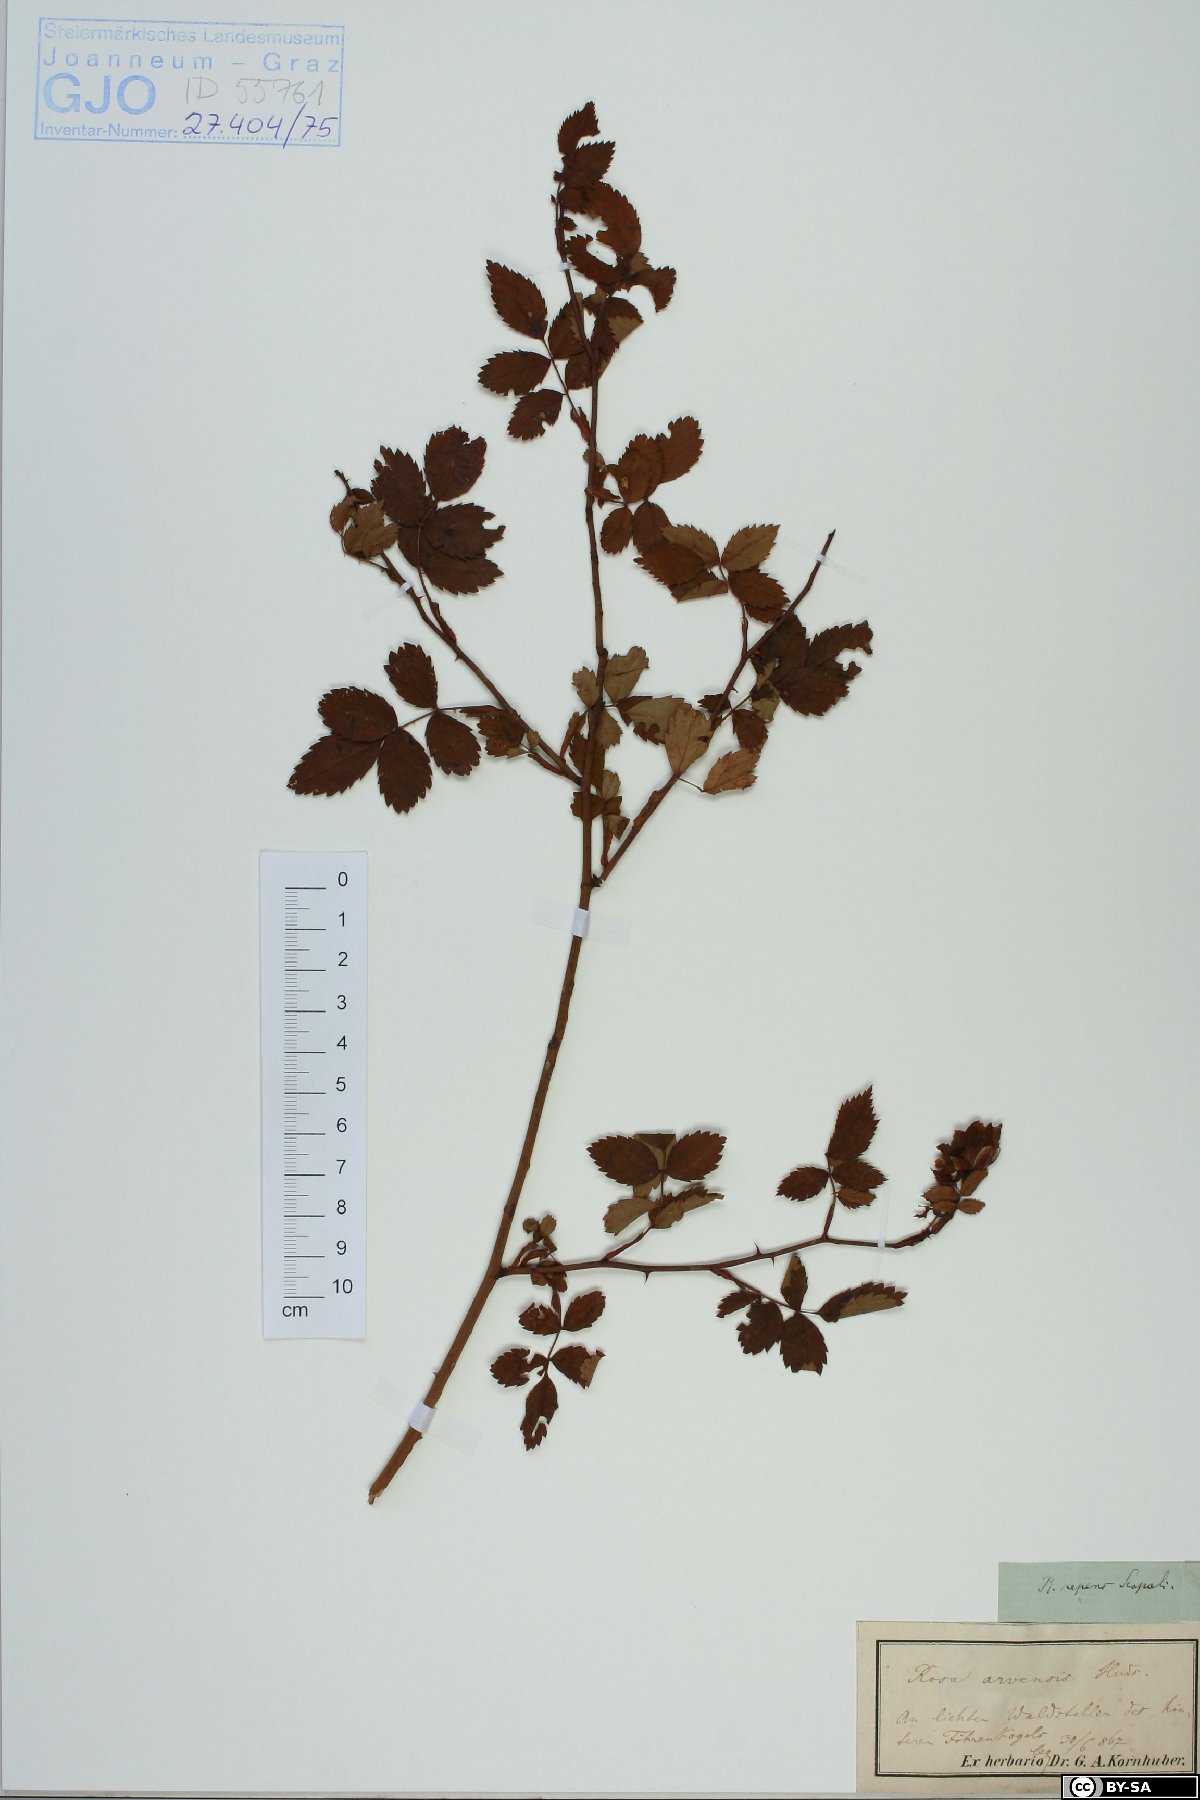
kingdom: Plantae
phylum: Tracheophyta
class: Magnoliopsida
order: Rosales
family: Rosaceae
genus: Rosa
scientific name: Rosa arvensis
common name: Field rose
